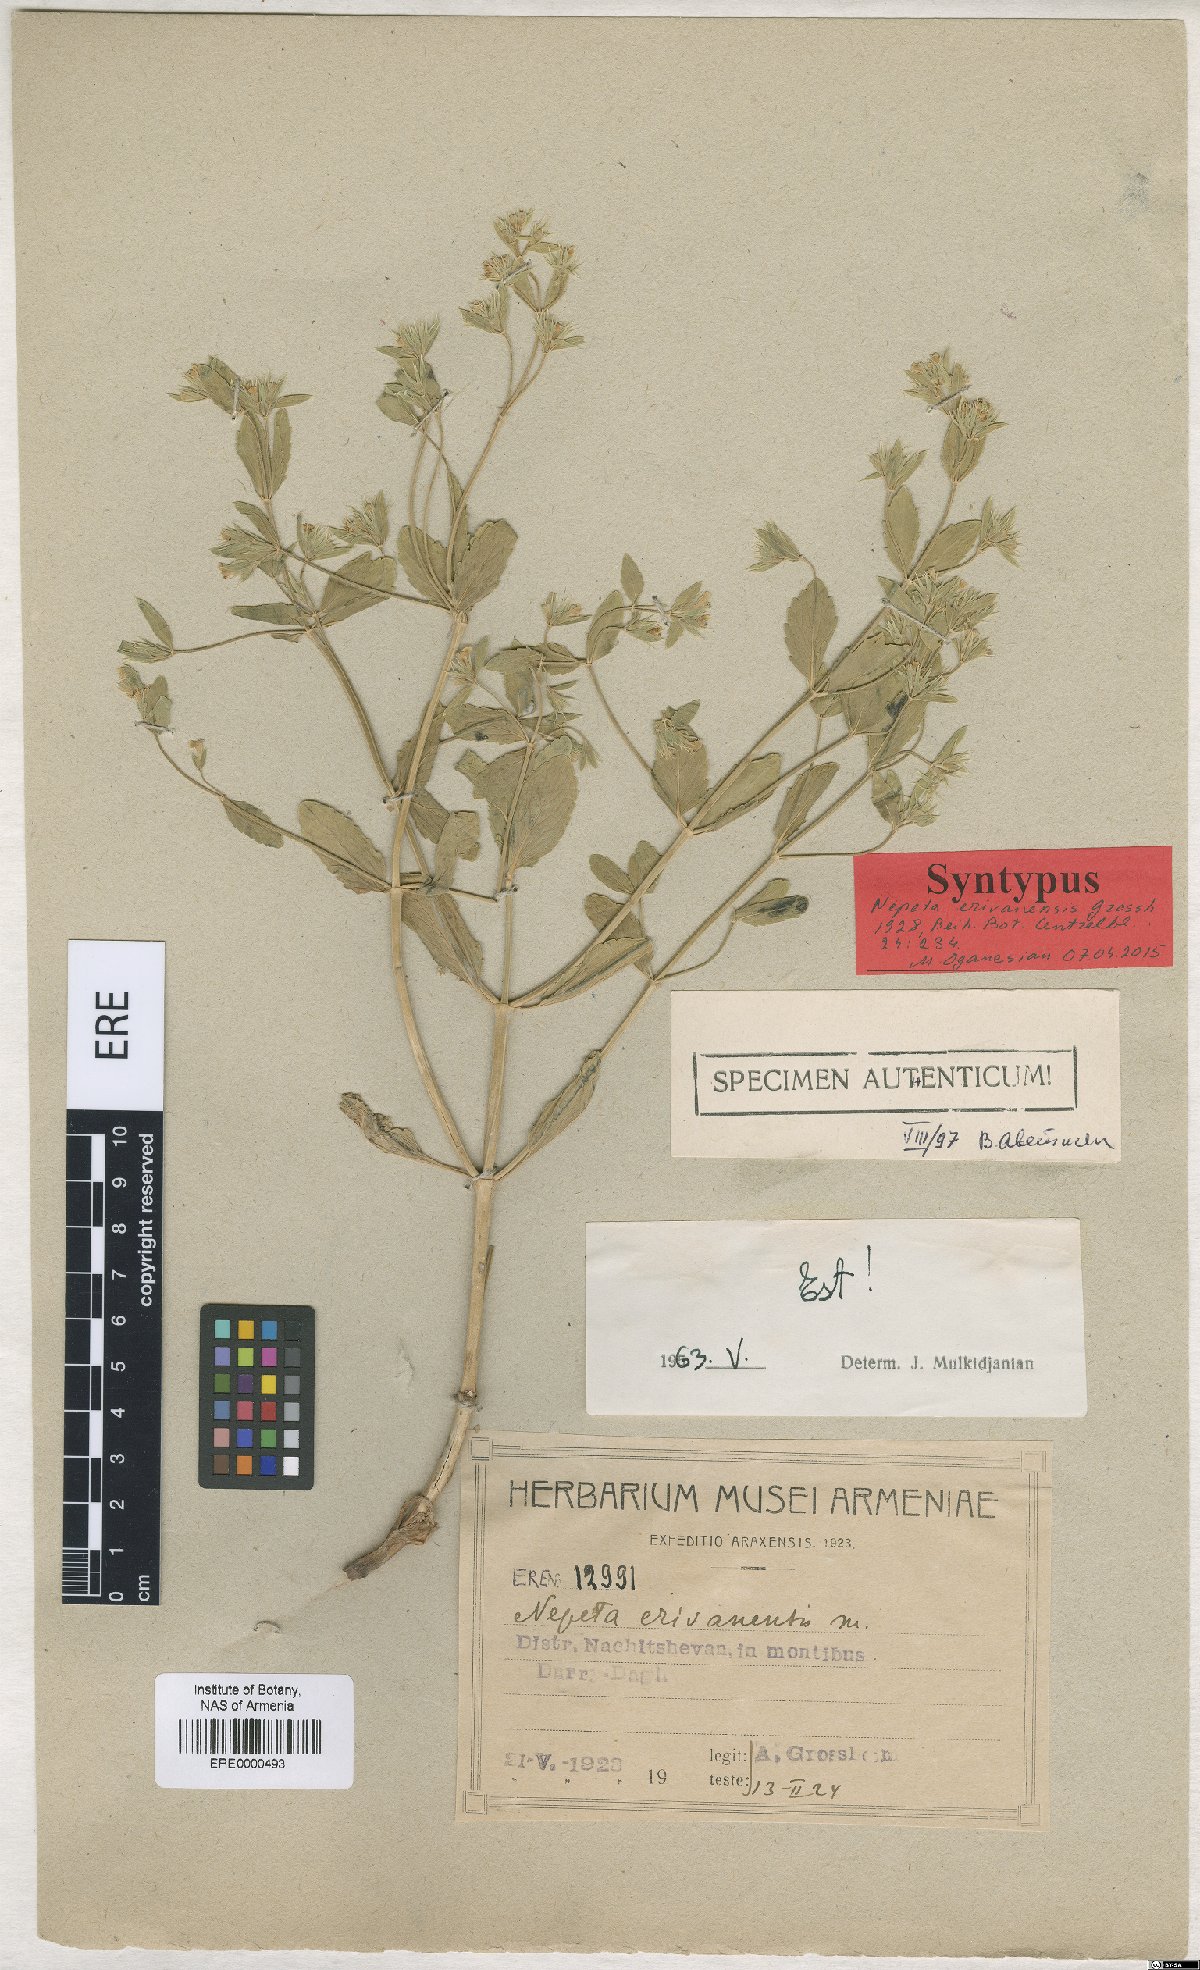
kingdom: Plantae
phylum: Tracheophyta
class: Magnoliopsida
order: Lamiales
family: Lamiaceae
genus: Nepeta
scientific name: Nepeta congesta
